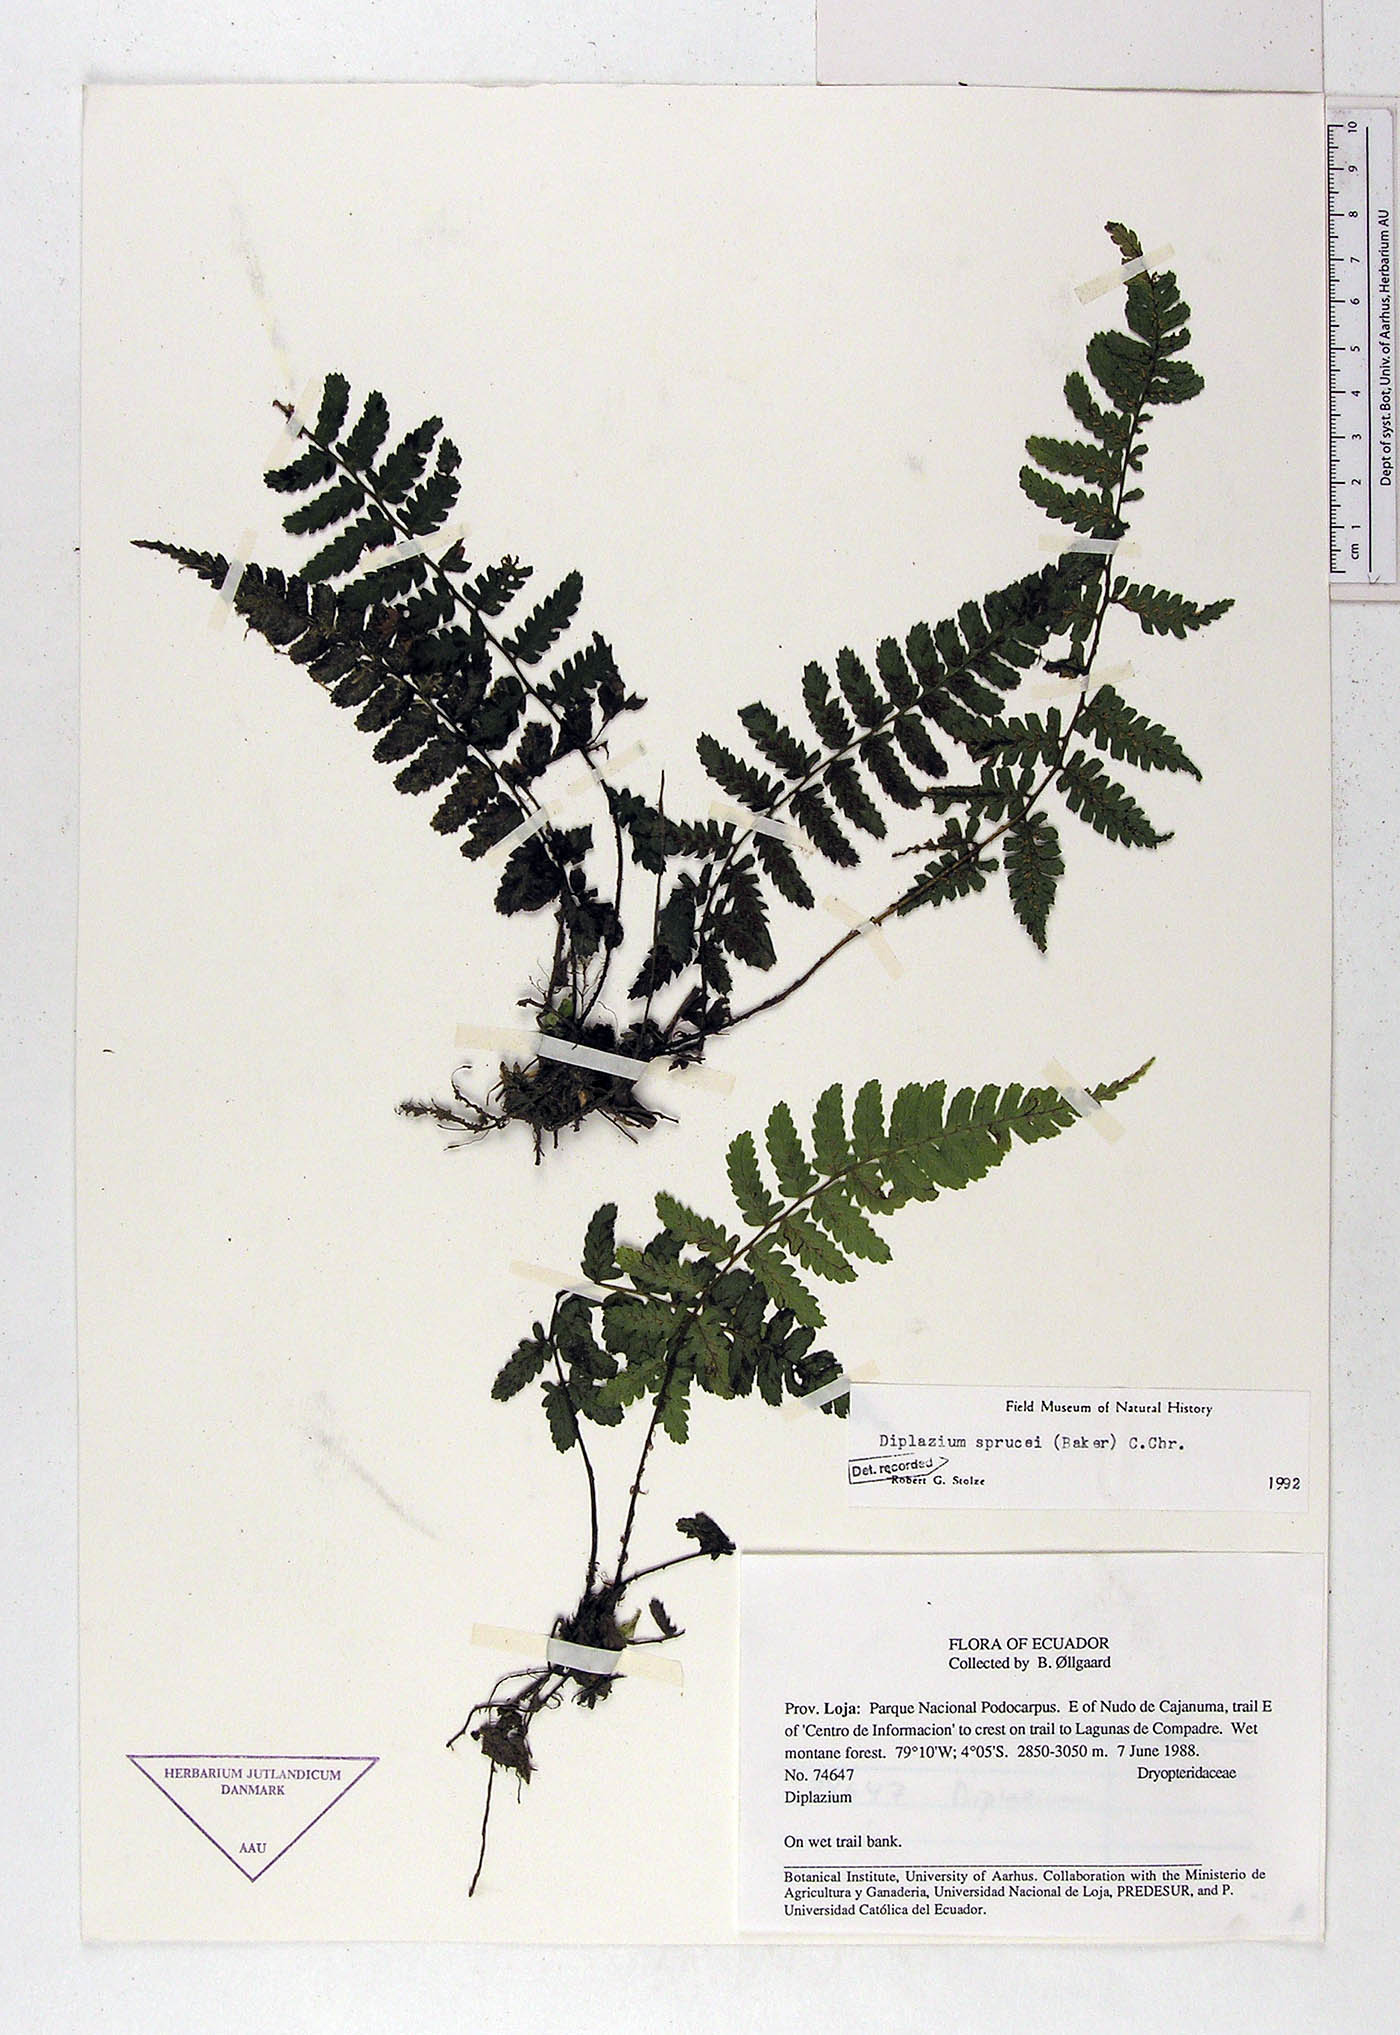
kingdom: Plantae
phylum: Tracheophyta
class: Polypodiopsida
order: Polypodiales
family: Athyriaceae
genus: Diplazium
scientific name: Diplazium sprucei
